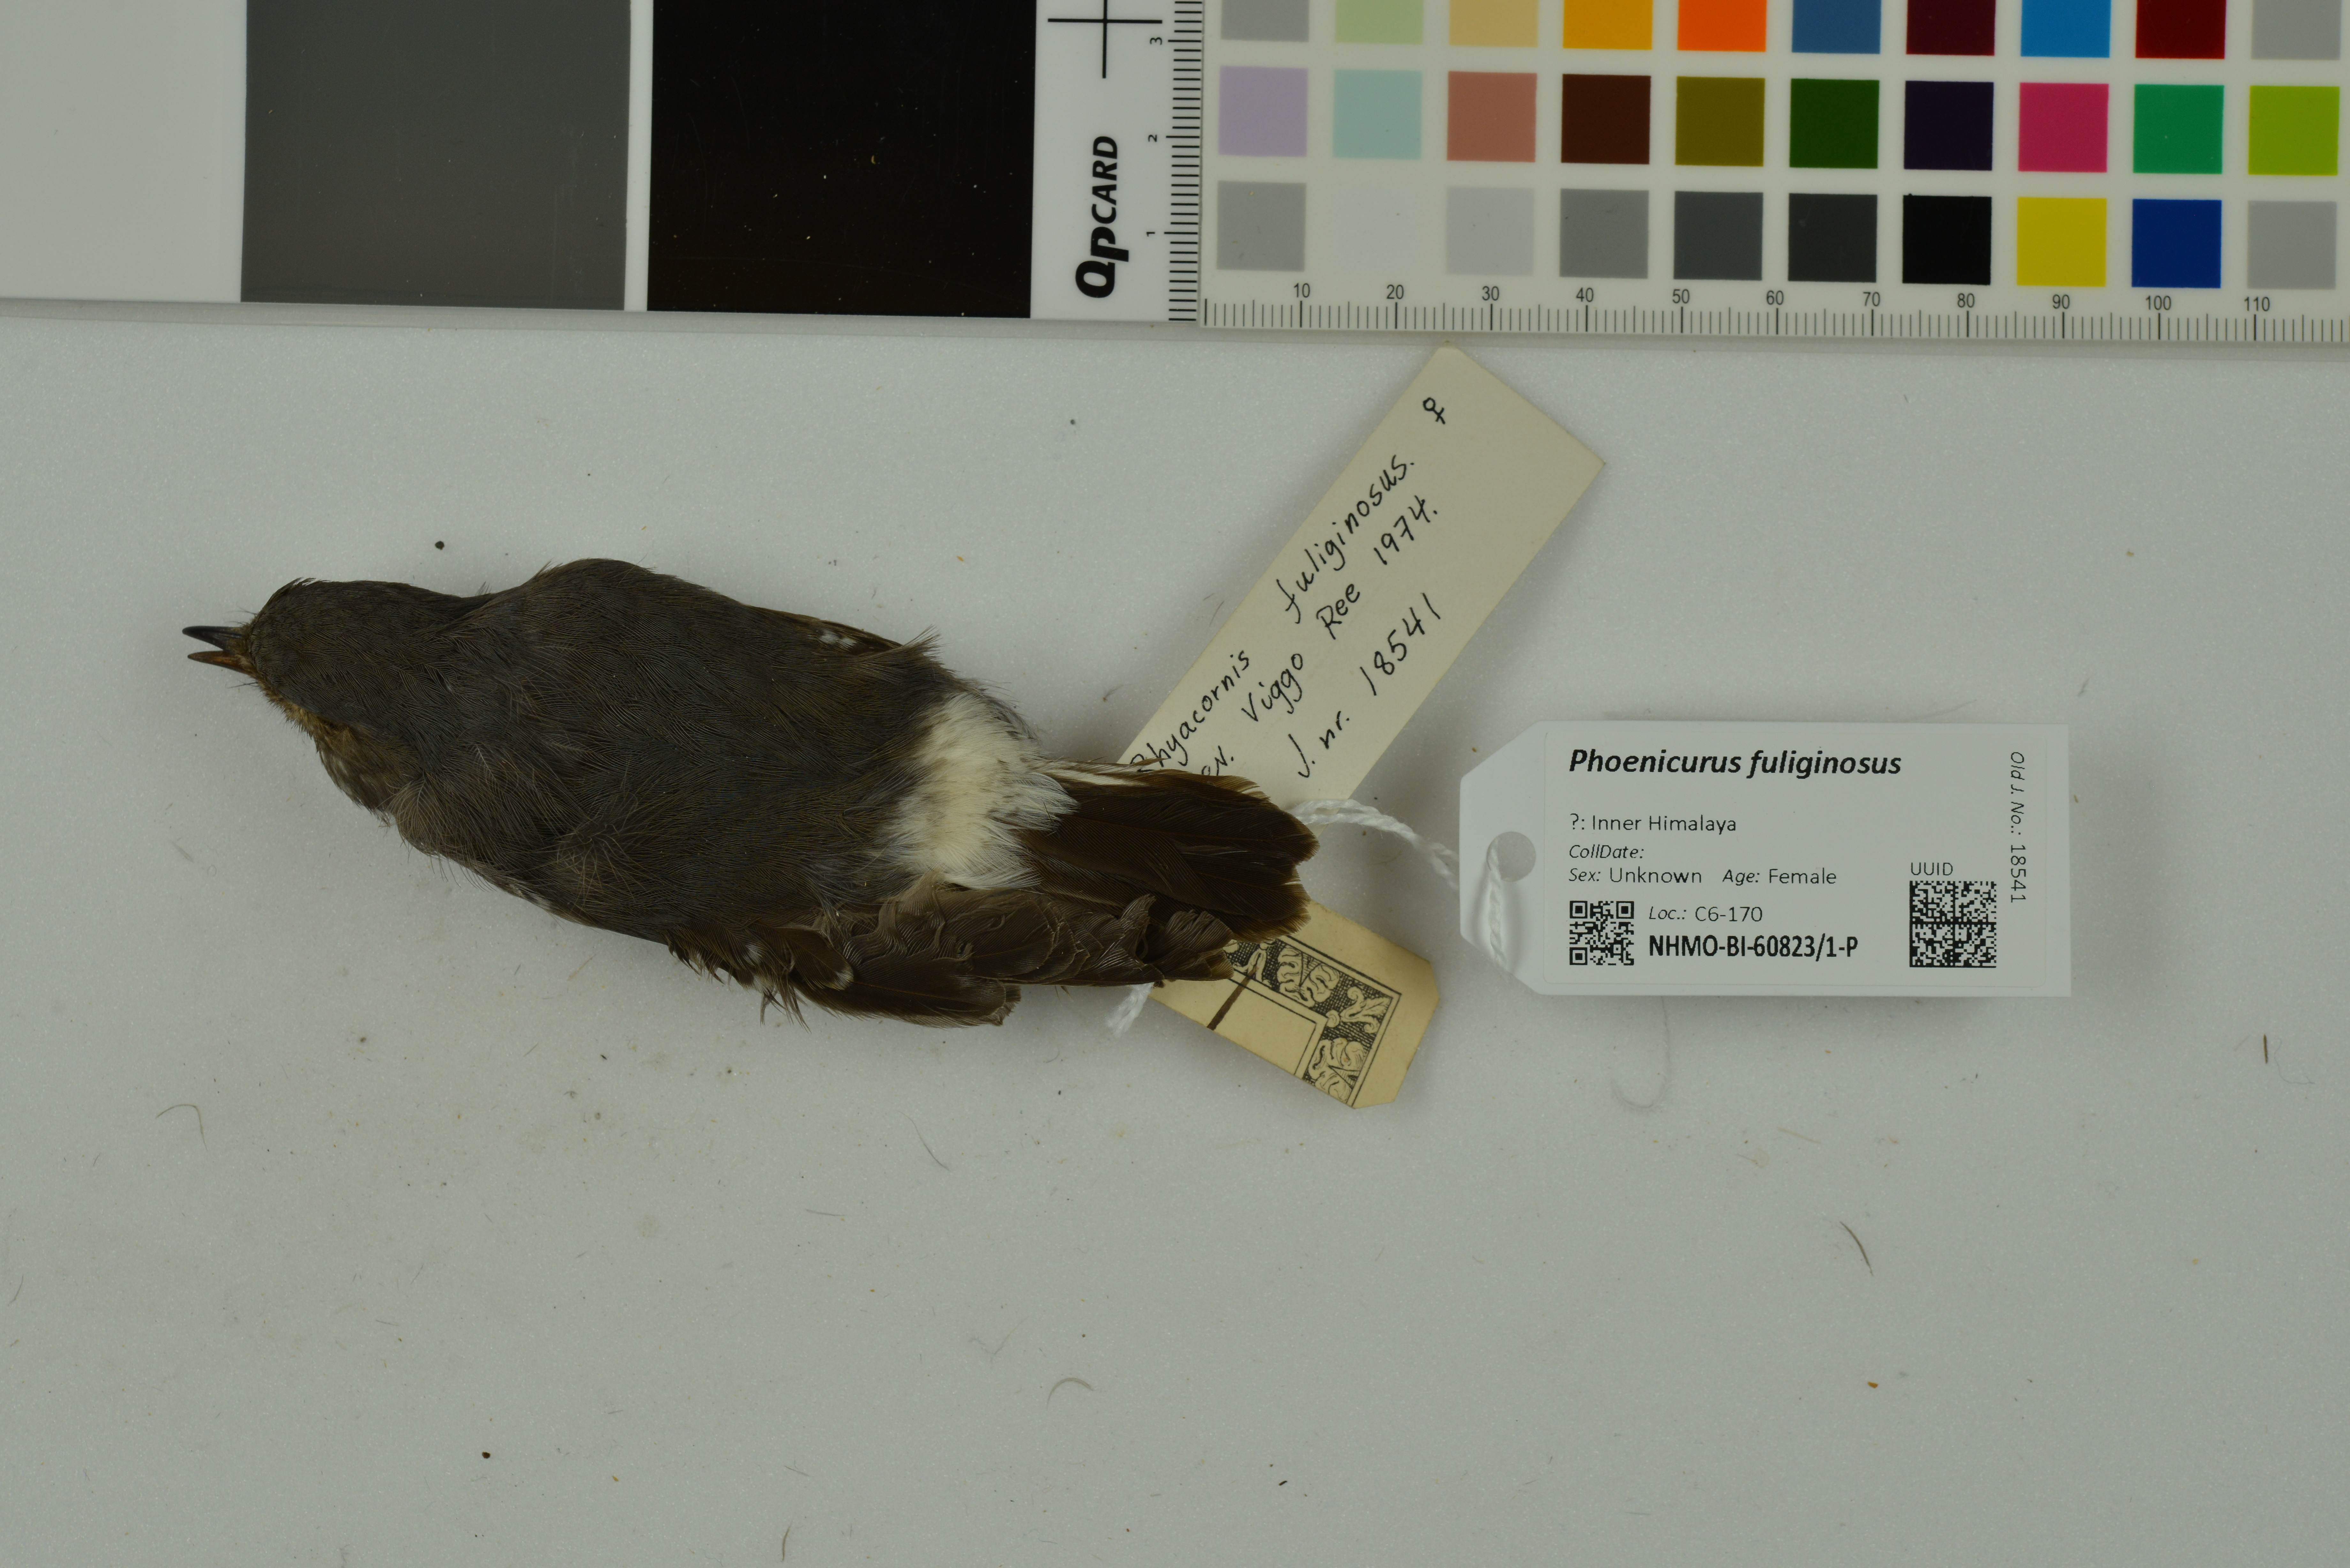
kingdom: Animalia
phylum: Chordata
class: Aves
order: Passeriformes
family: Muscicapidae
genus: Phoenicurus
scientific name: Phoenicurus fuliginosus
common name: Plumbeous water redstart
